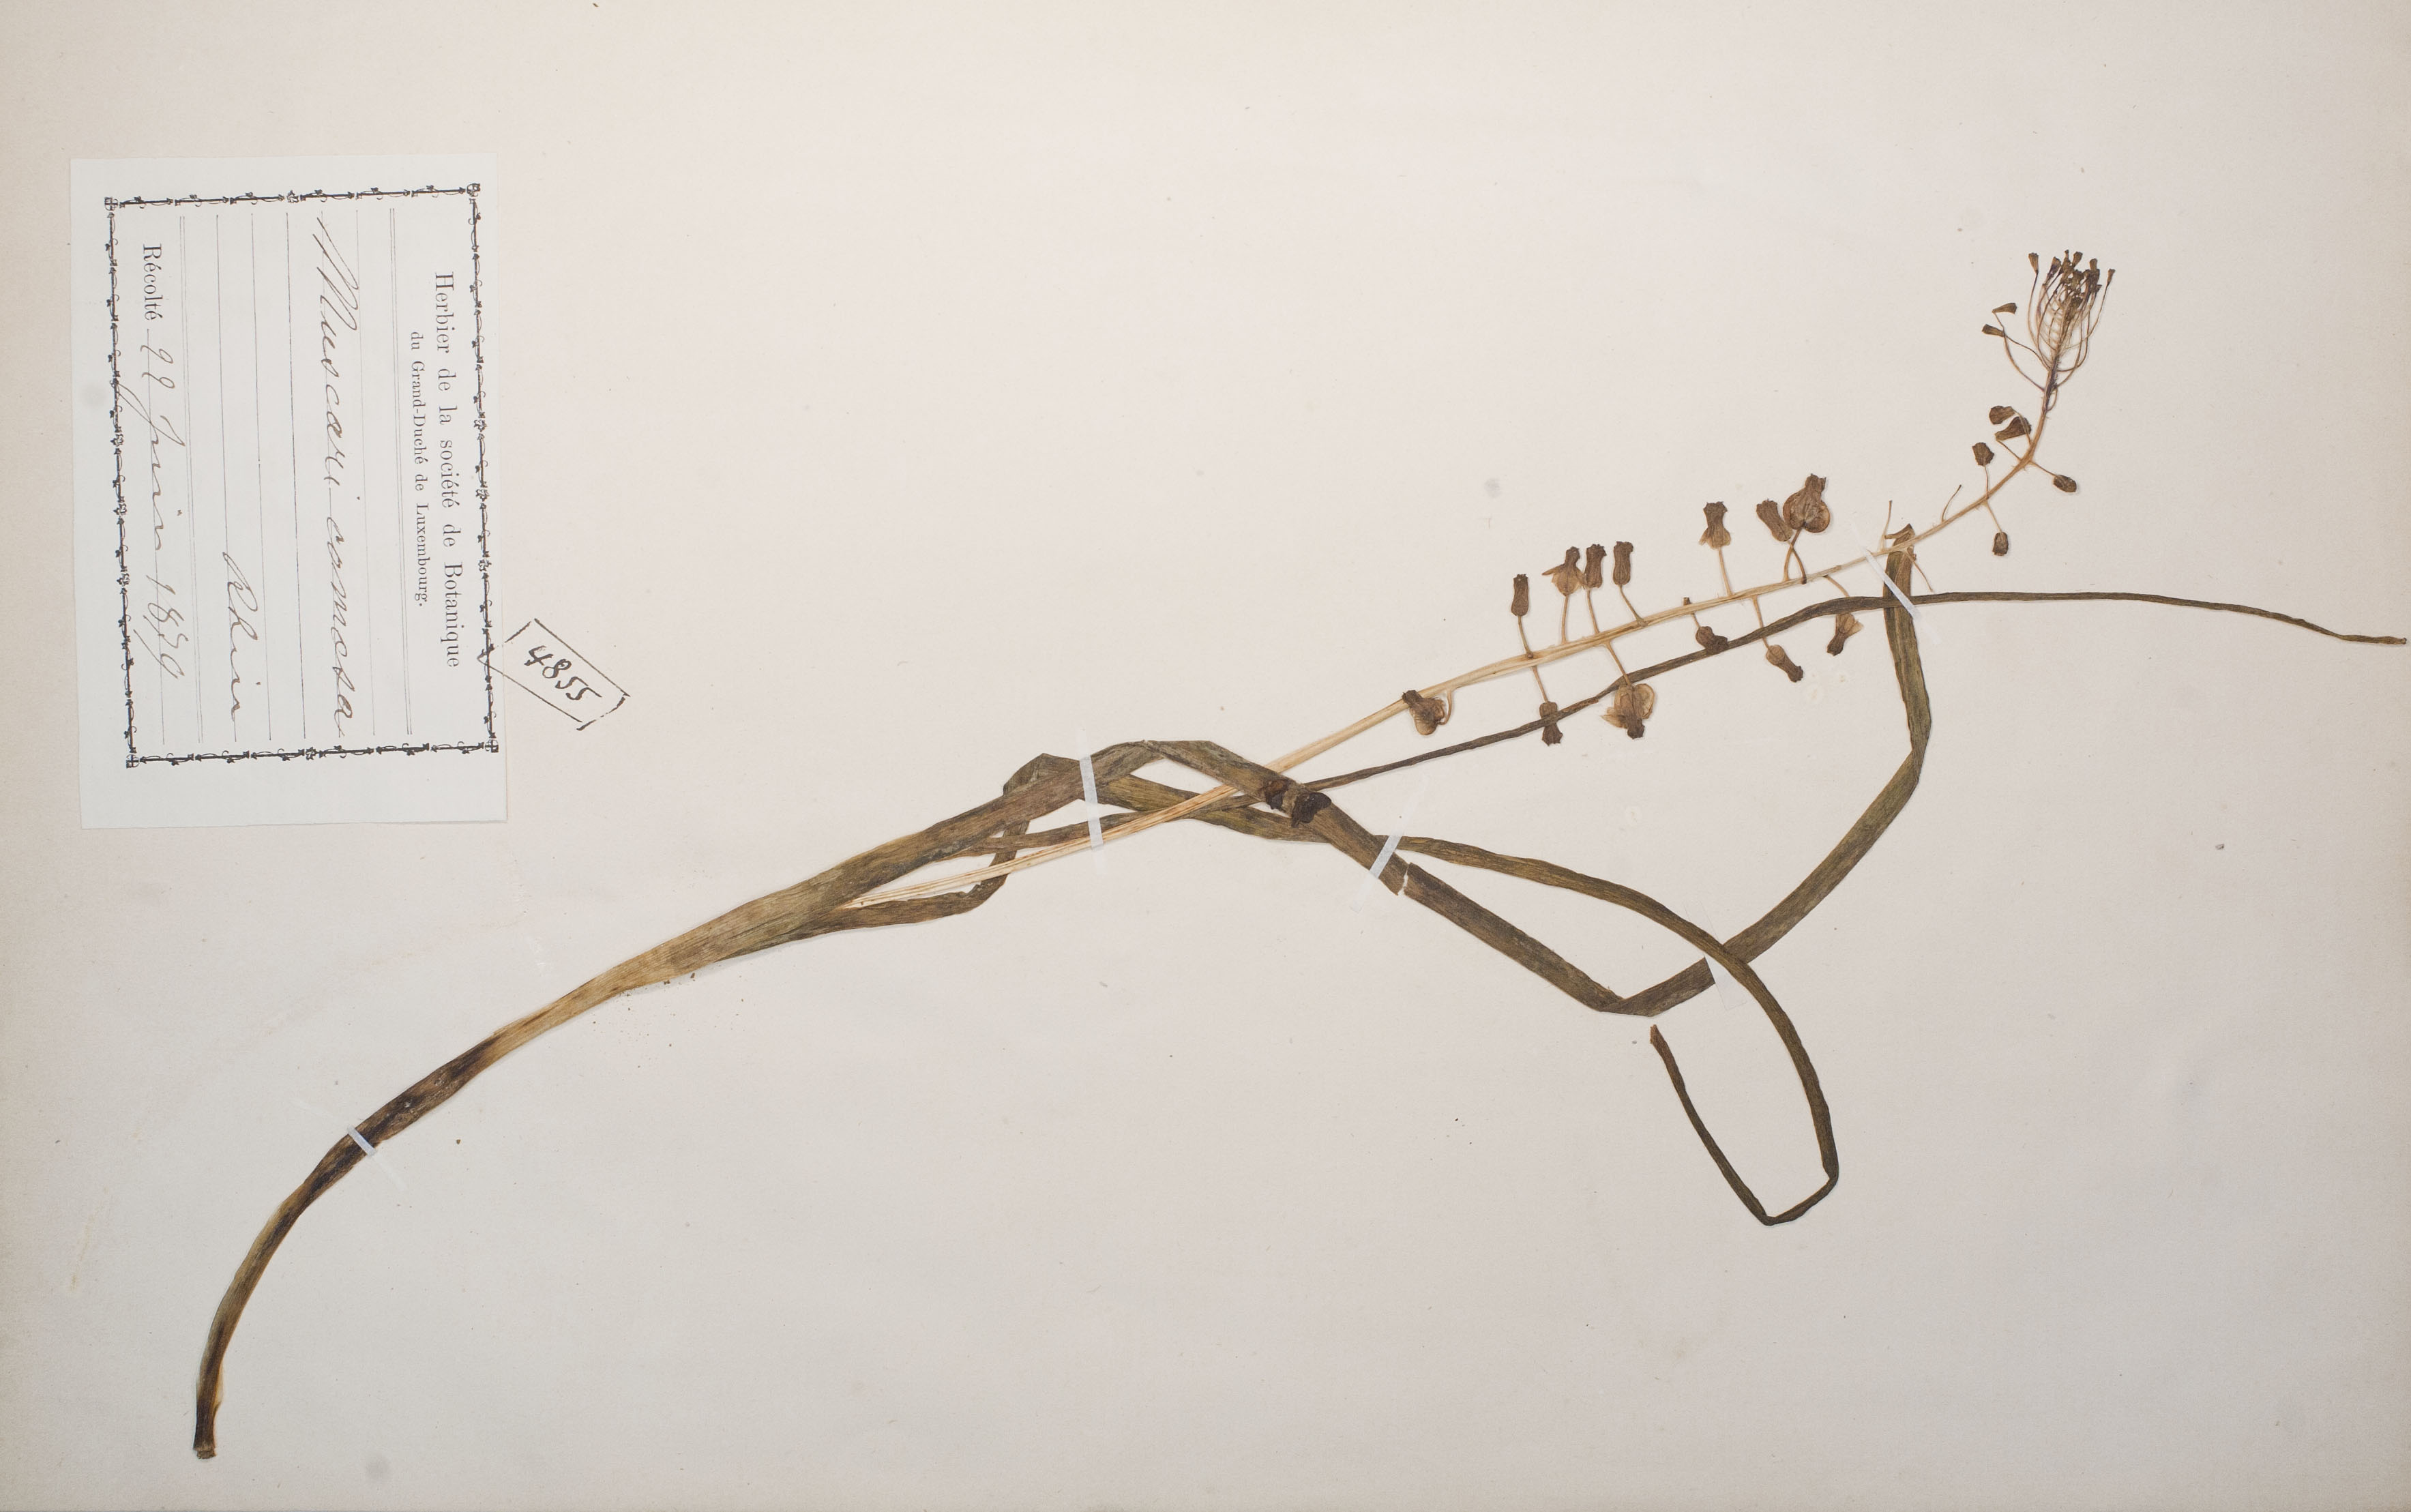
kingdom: Plantae
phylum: Tracheophyta
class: Liliopsida
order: Asparagales
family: Asparagaceae
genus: Muscari
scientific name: Muscari comosum
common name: Tassel hyacinth
